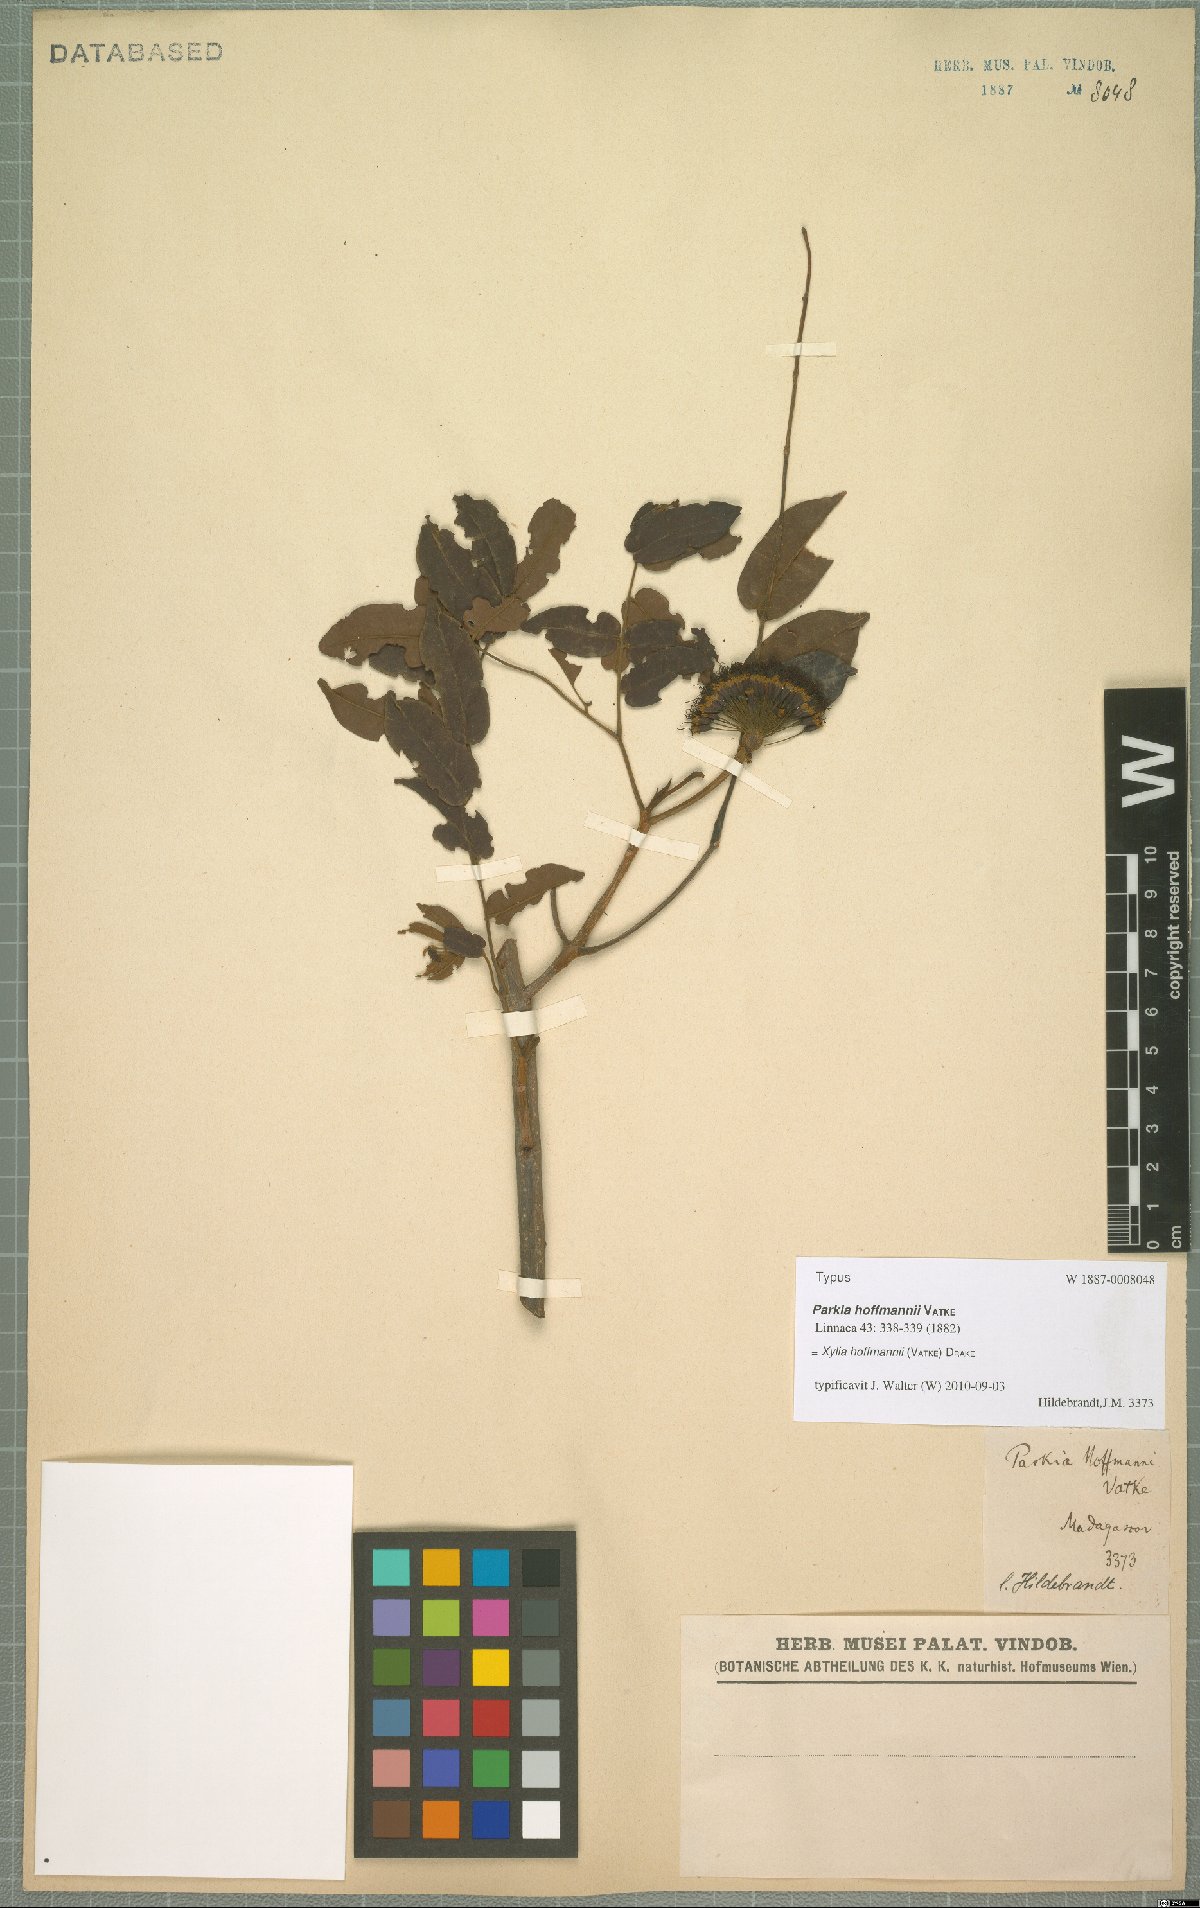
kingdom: Plantae
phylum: Tracheophyta
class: Magnoliopsida
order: Fabales
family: Fabaceae
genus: Xylia
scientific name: Xylia hoffmannii
